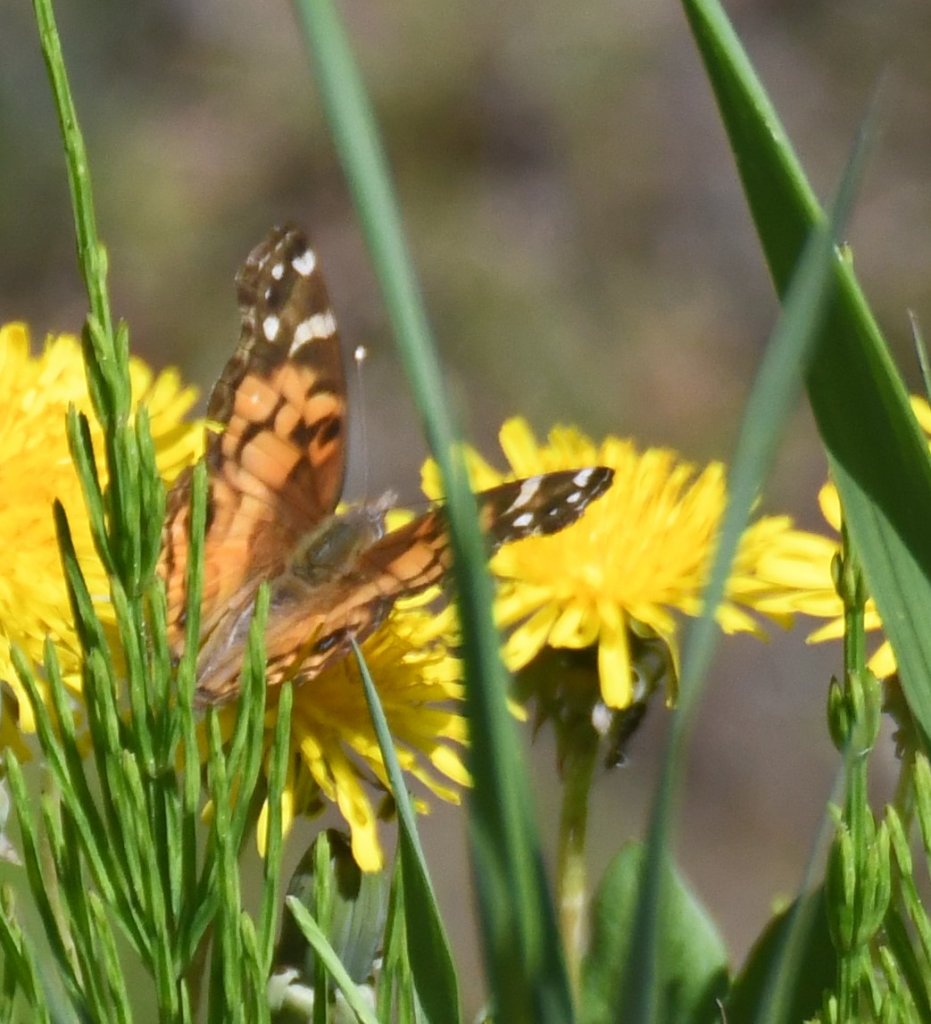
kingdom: Animalia
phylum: Arthropoda
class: Insecta
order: Lepidoptera
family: Nymphalidae
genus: Vanessa
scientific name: Vanessa virginiensis
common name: American Lady
